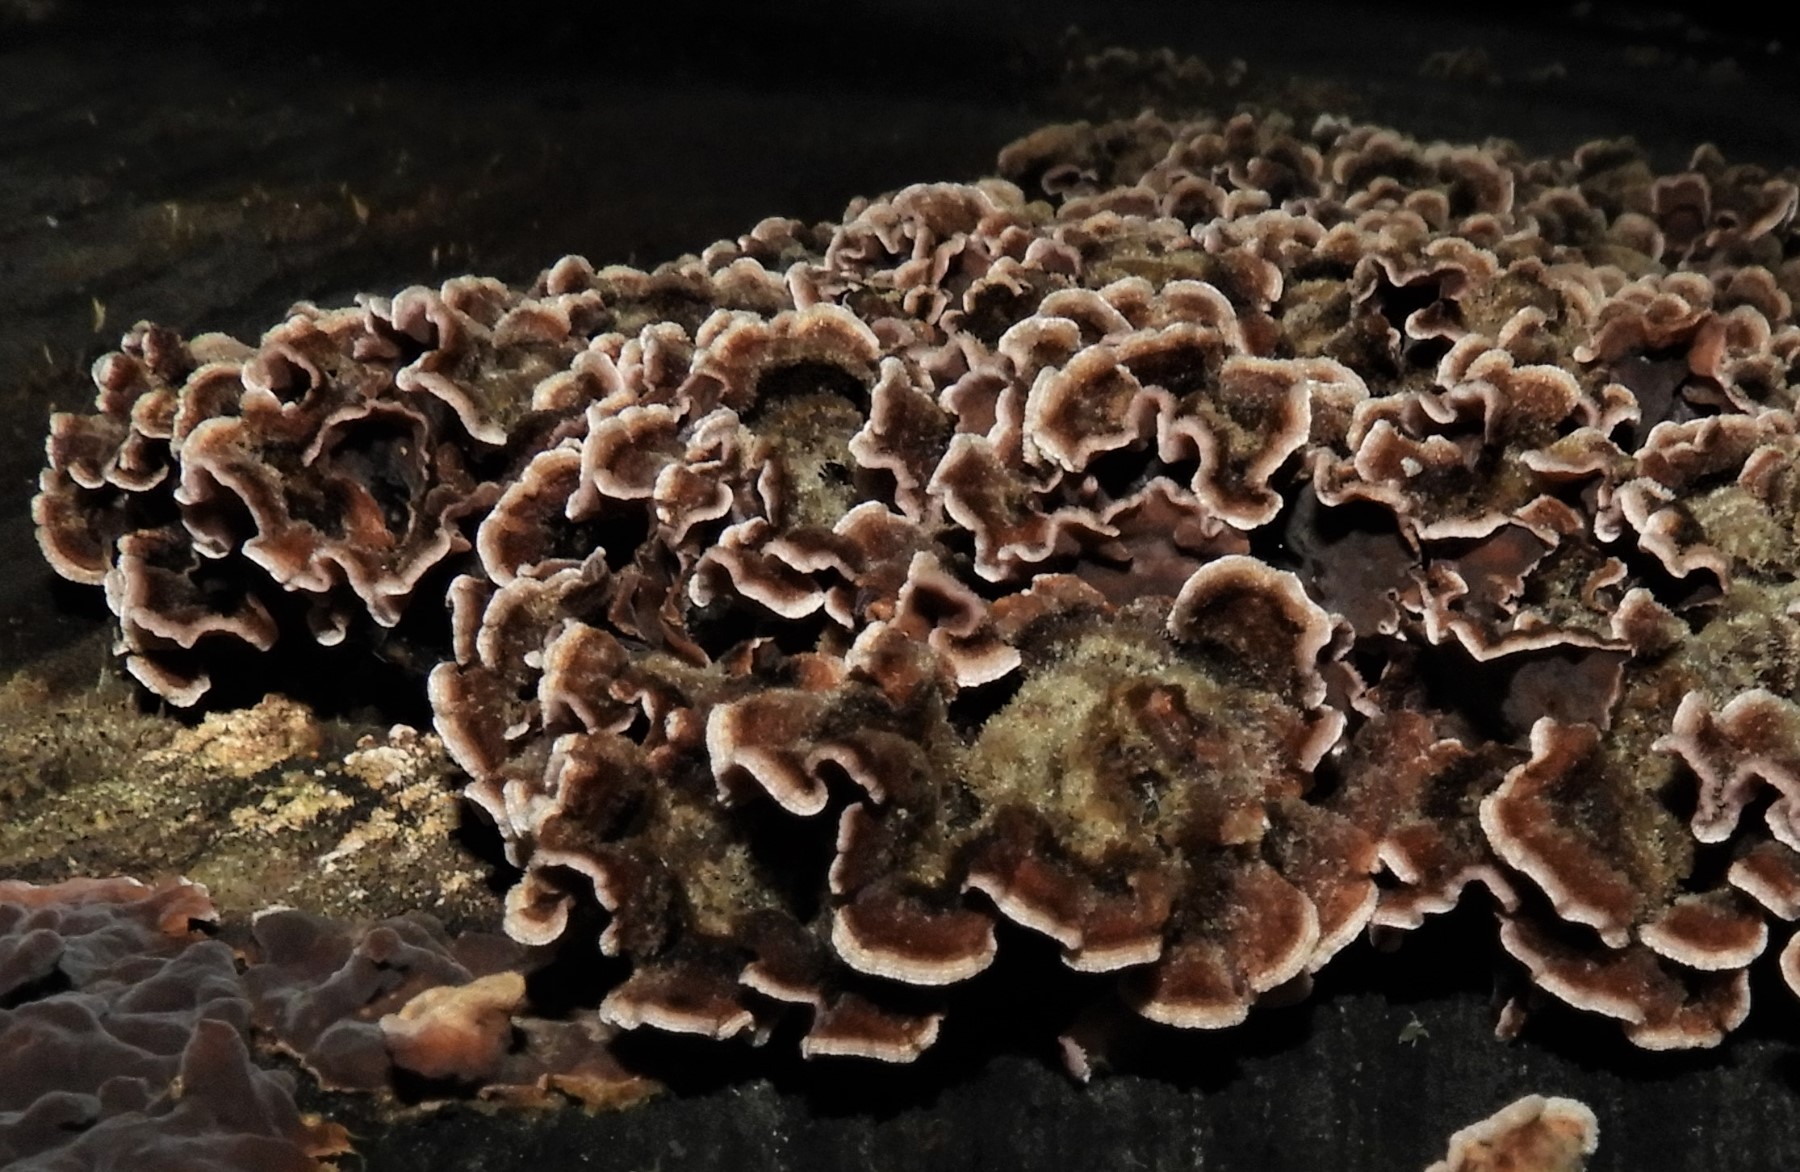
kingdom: Fungi
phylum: Basidiomycota
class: Agaricomycetes
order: Agaricales
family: Cyphellaceae
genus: Chondrostereum
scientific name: Chondrostereum purpureum
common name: purpurlædersvamp
